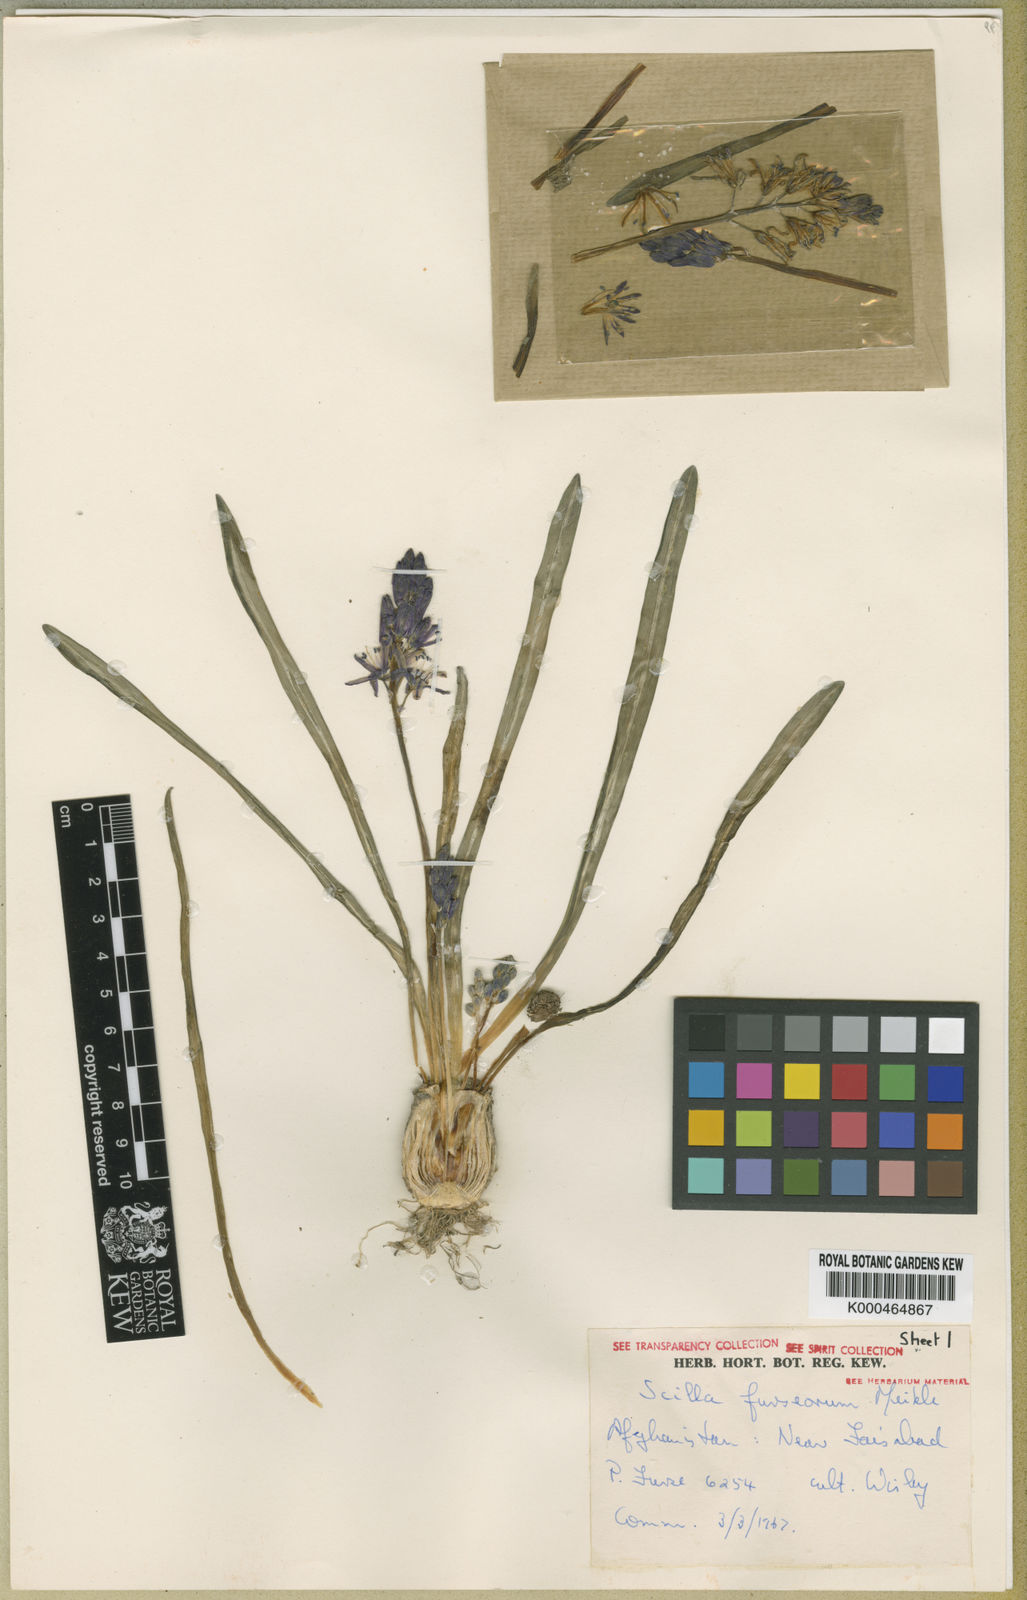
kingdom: Plantae
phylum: Tracheophyta
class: Liliopsida
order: Asparagales
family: Asparagaceae
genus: Fessia
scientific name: Fessia furseorum
